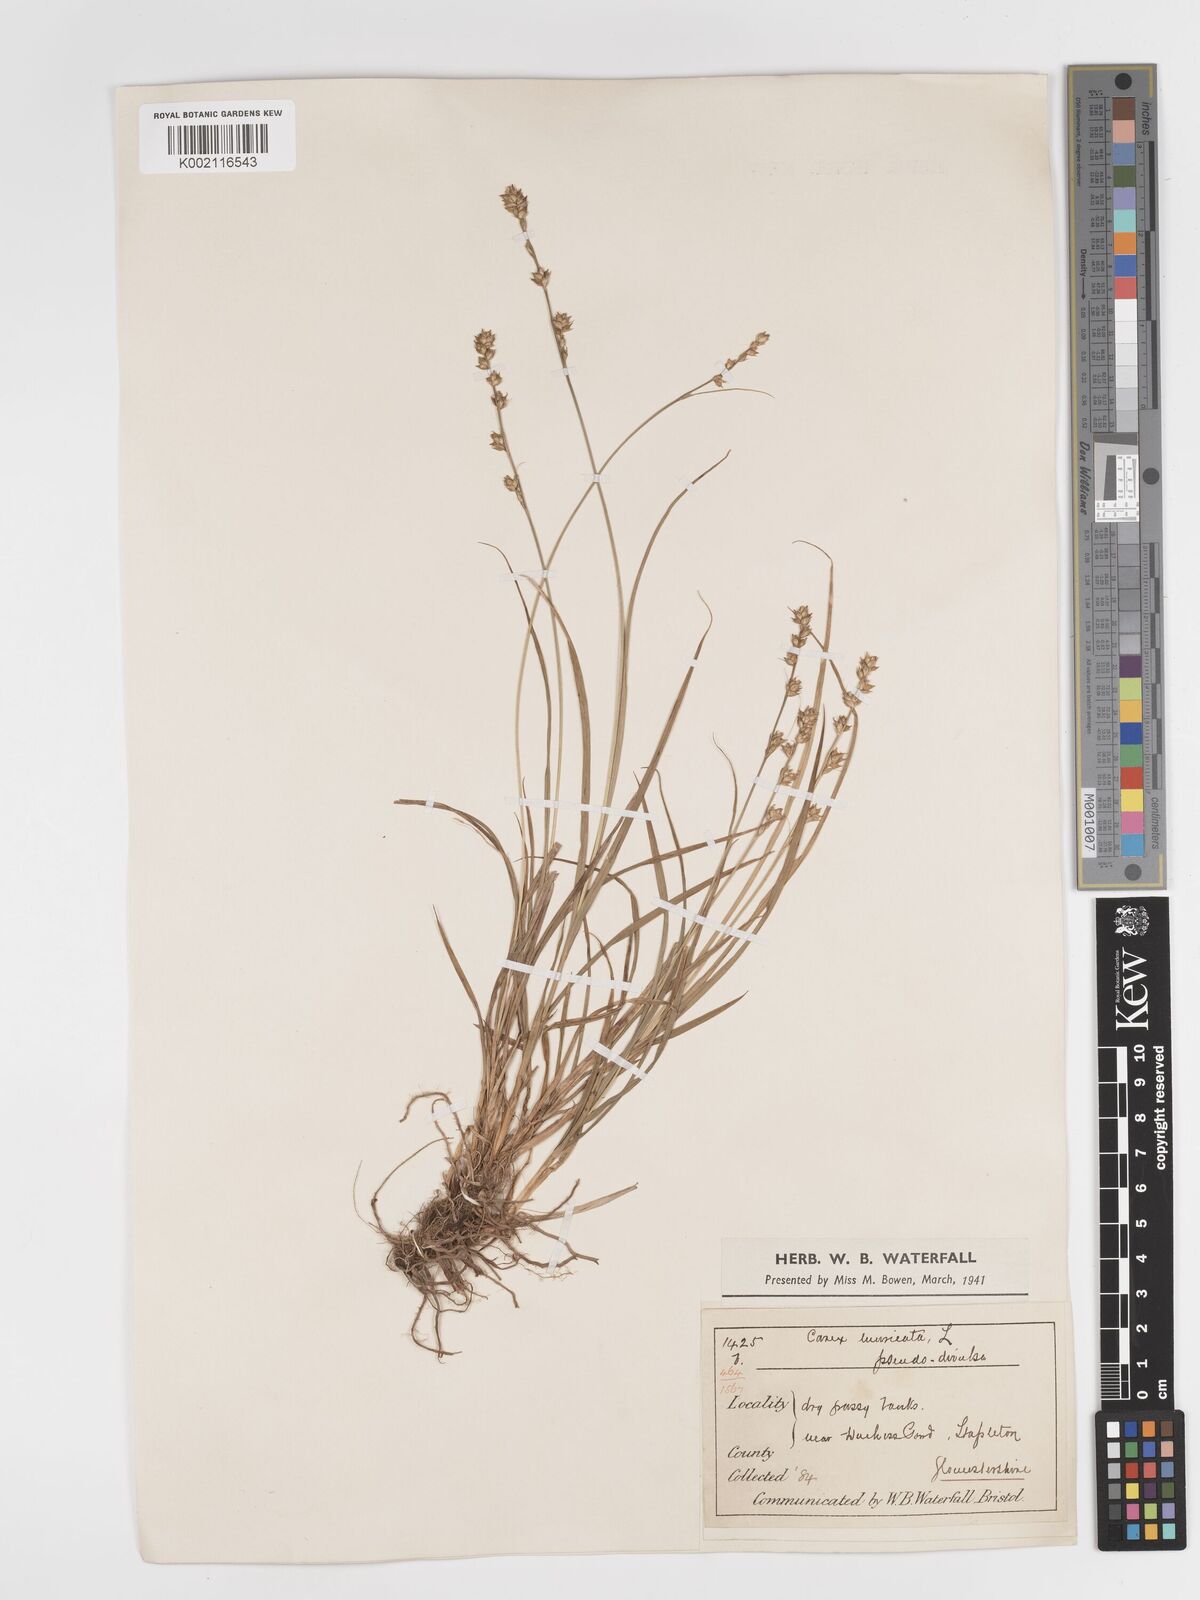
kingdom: Plantae
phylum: Tracheophyta
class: Liliopsida
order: Poales
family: Cyperaceae
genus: Carex
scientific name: Carex divulsa
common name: Grassland sedge
